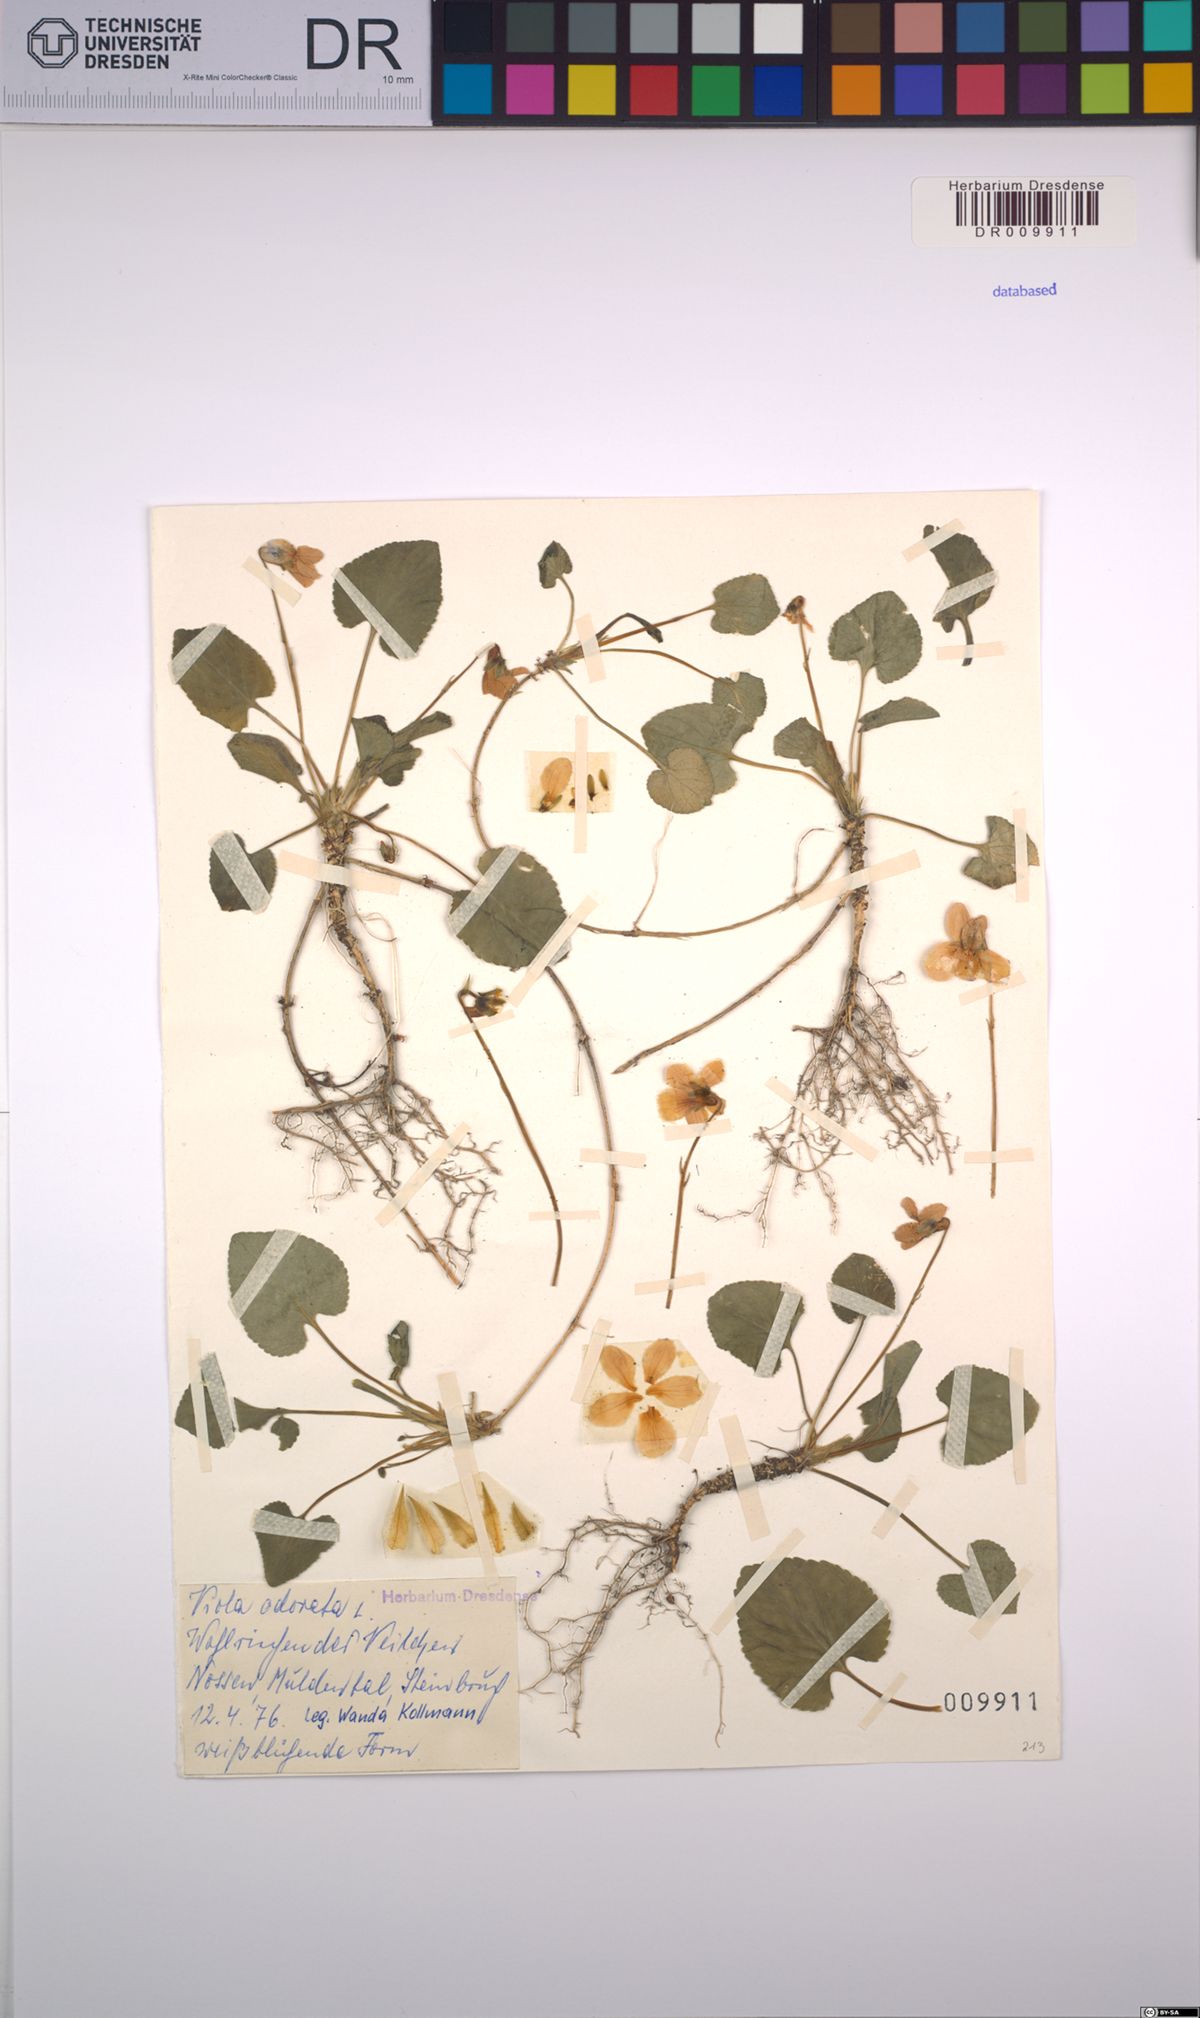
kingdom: Plantae
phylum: Tracheophyta
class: Magnoliopsida
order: Malpighiales
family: Violaceae
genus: Viola
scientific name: Viola odorata
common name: Sweet violet
